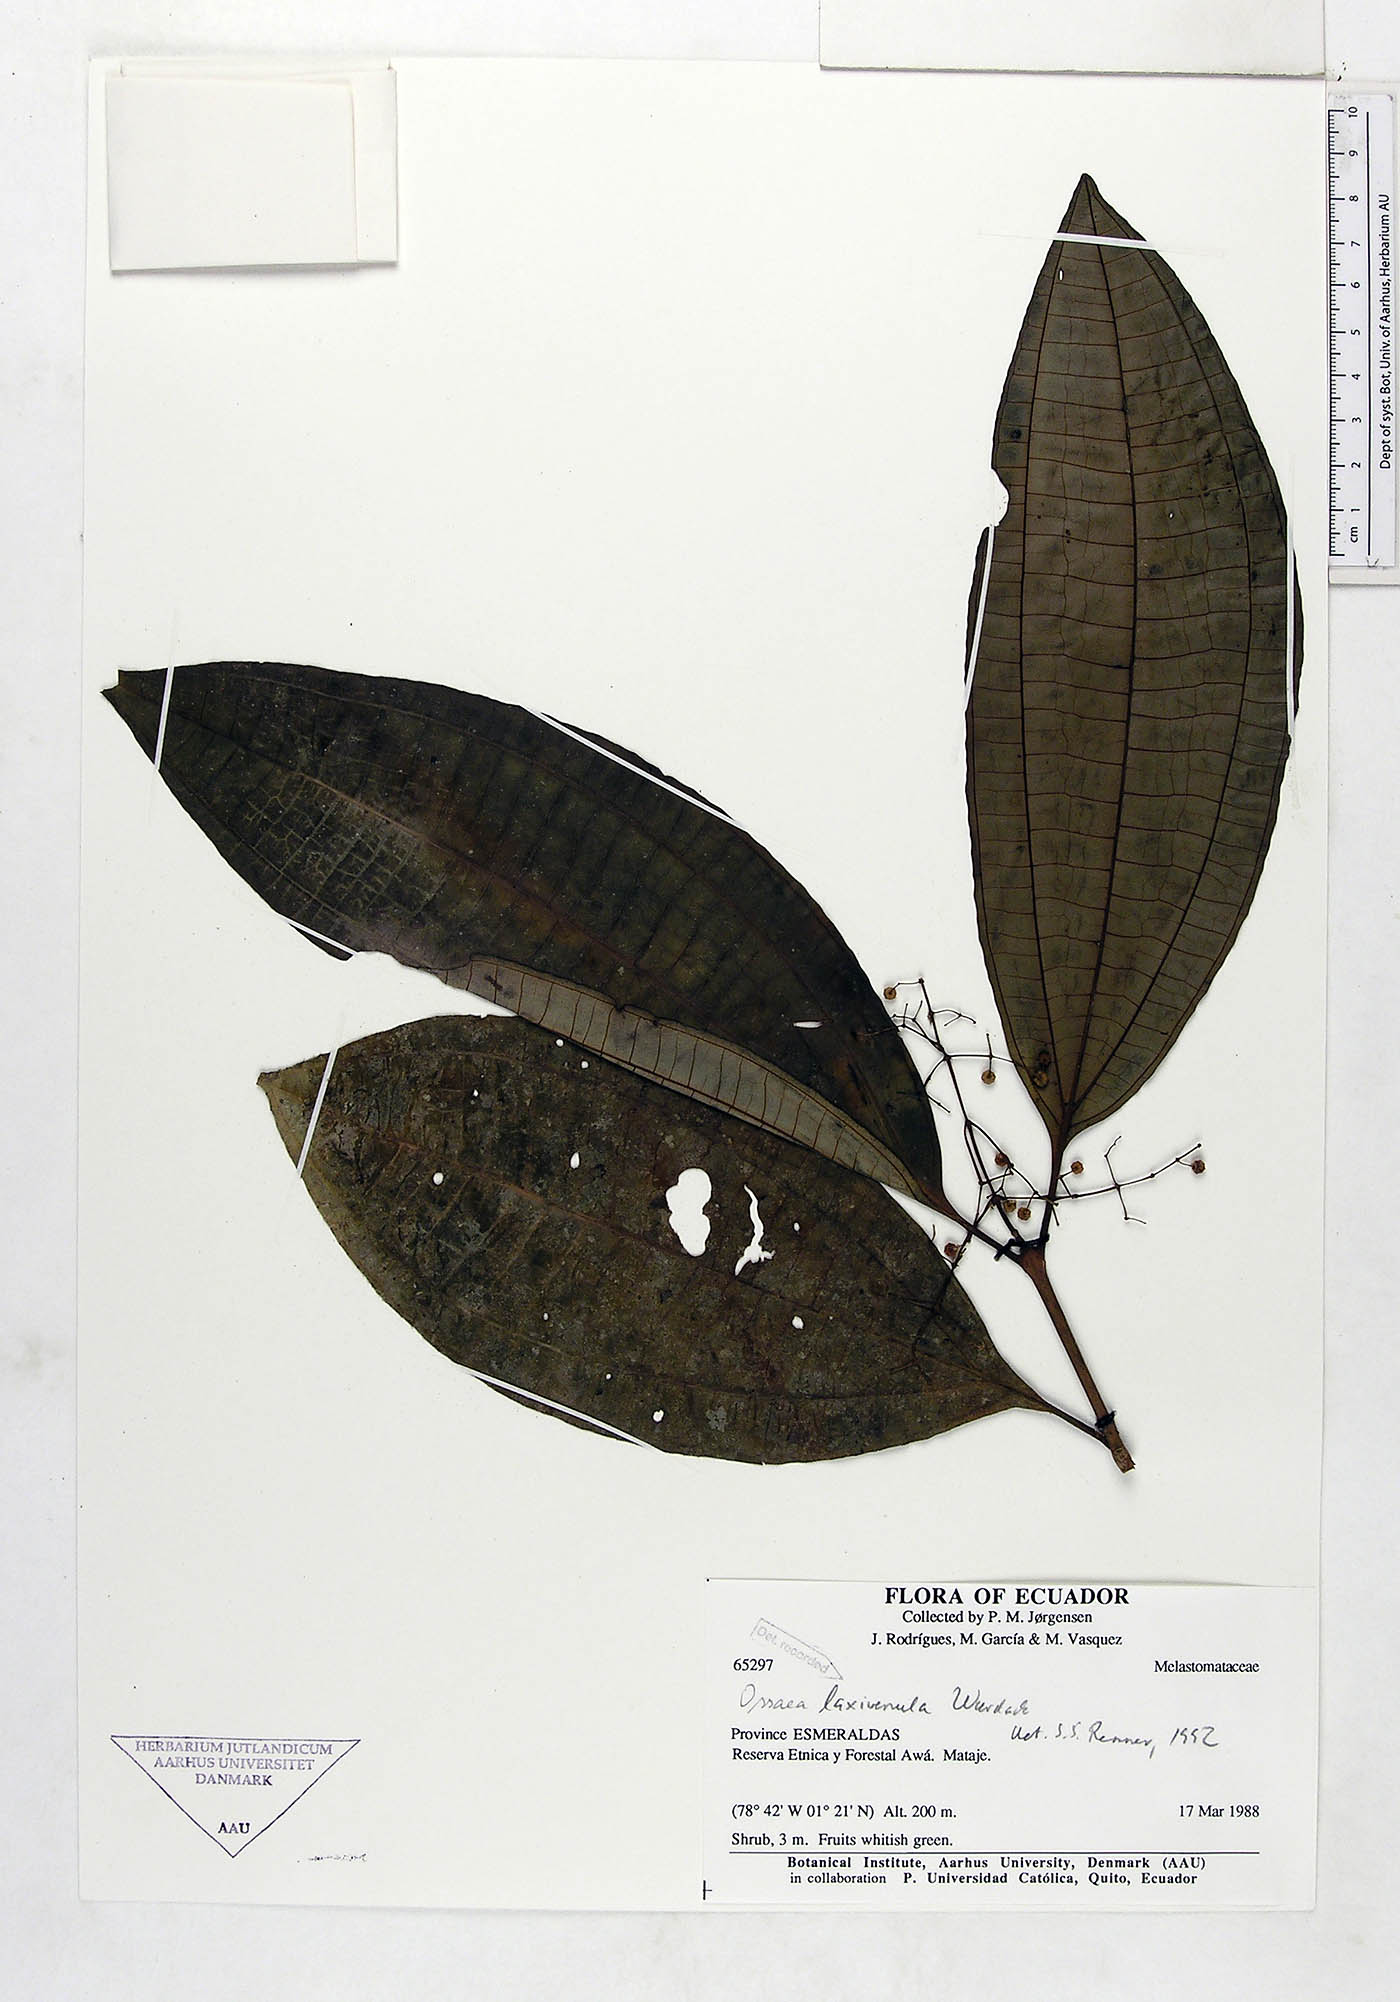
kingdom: Plantae
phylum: Tracheophyta
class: Magnoliopsida
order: Myrtales
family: Melastomataceae
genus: Miconia
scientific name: Miconia laxivenula
